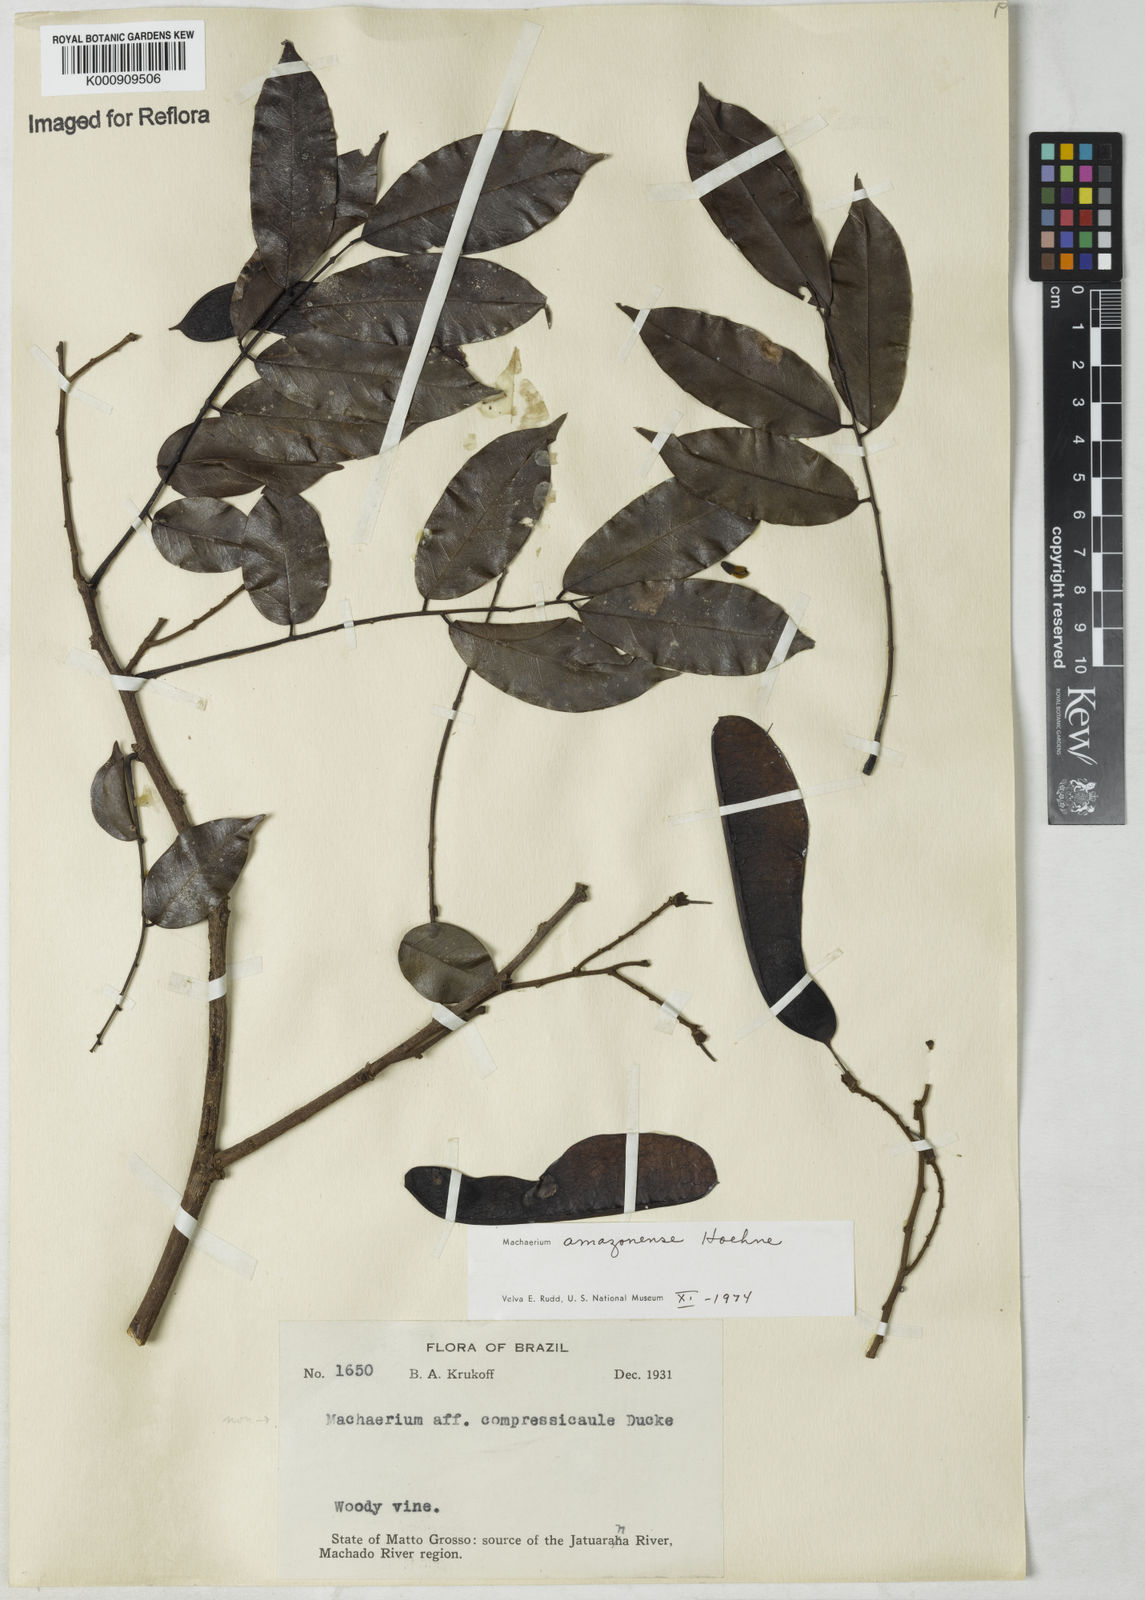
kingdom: Plantae
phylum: Tracheophyta
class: Magnoliopsida
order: Fabales
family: Fabaceae
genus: Machaerium
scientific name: Machaerium amazonense
